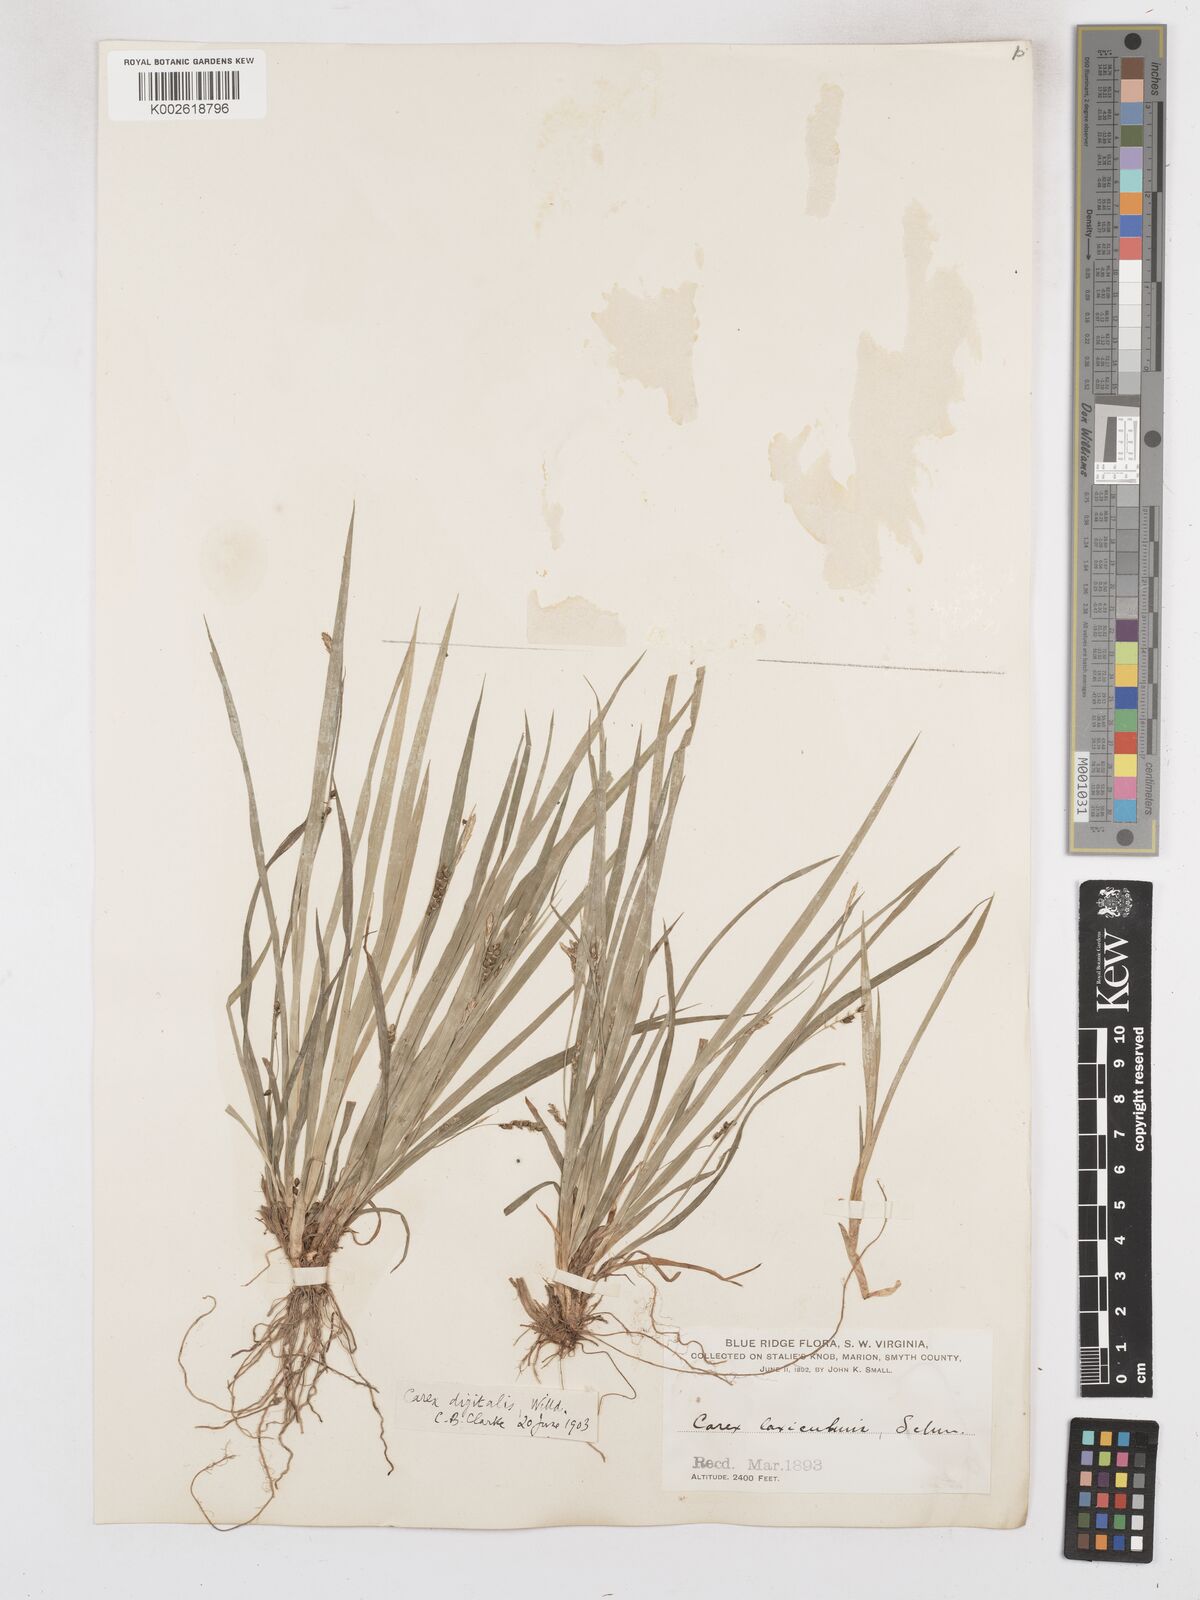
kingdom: Plantae
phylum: Tracheophyta
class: Liliopsida
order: Poales
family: Cyperaceae
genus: Carex
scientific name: Carex digitalis
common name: Slender wood sedge
